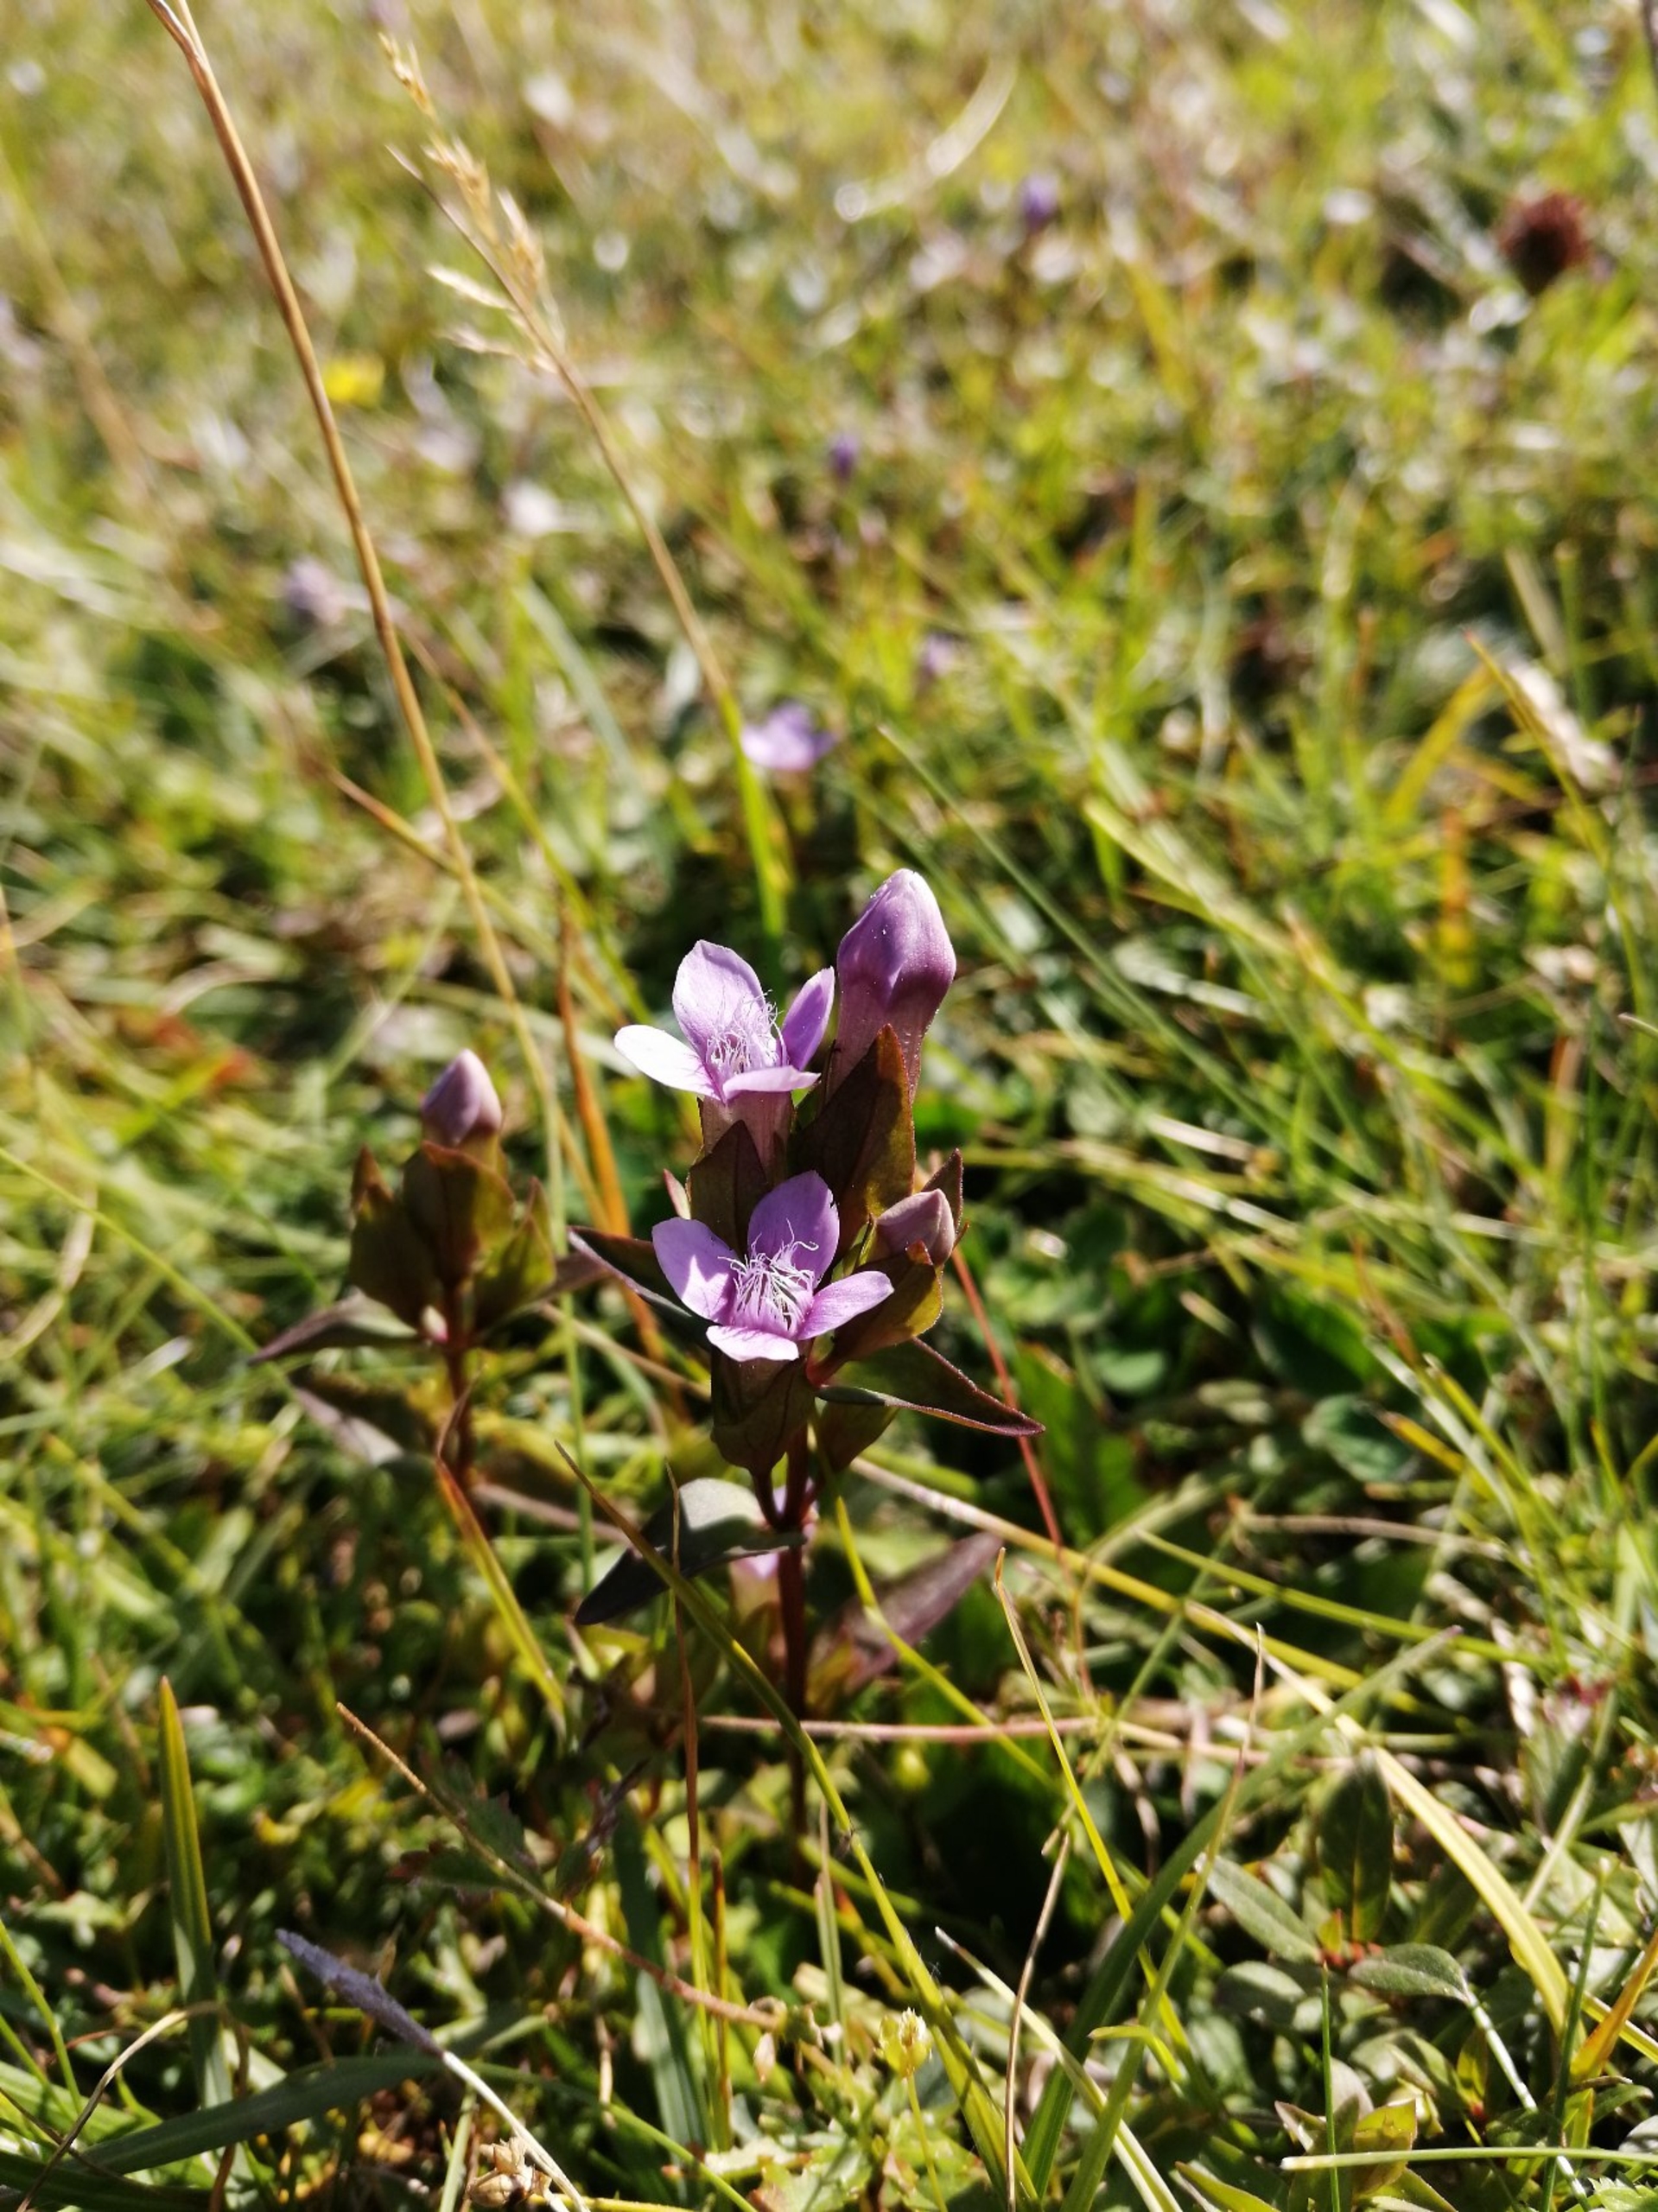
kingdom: Plantae
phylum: Tracheophyta
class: Magnoliopsida
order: Gentianales
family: Gentianaceae
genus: Gentianella
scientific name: Gentianella campestris
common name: Baltisk ensian
